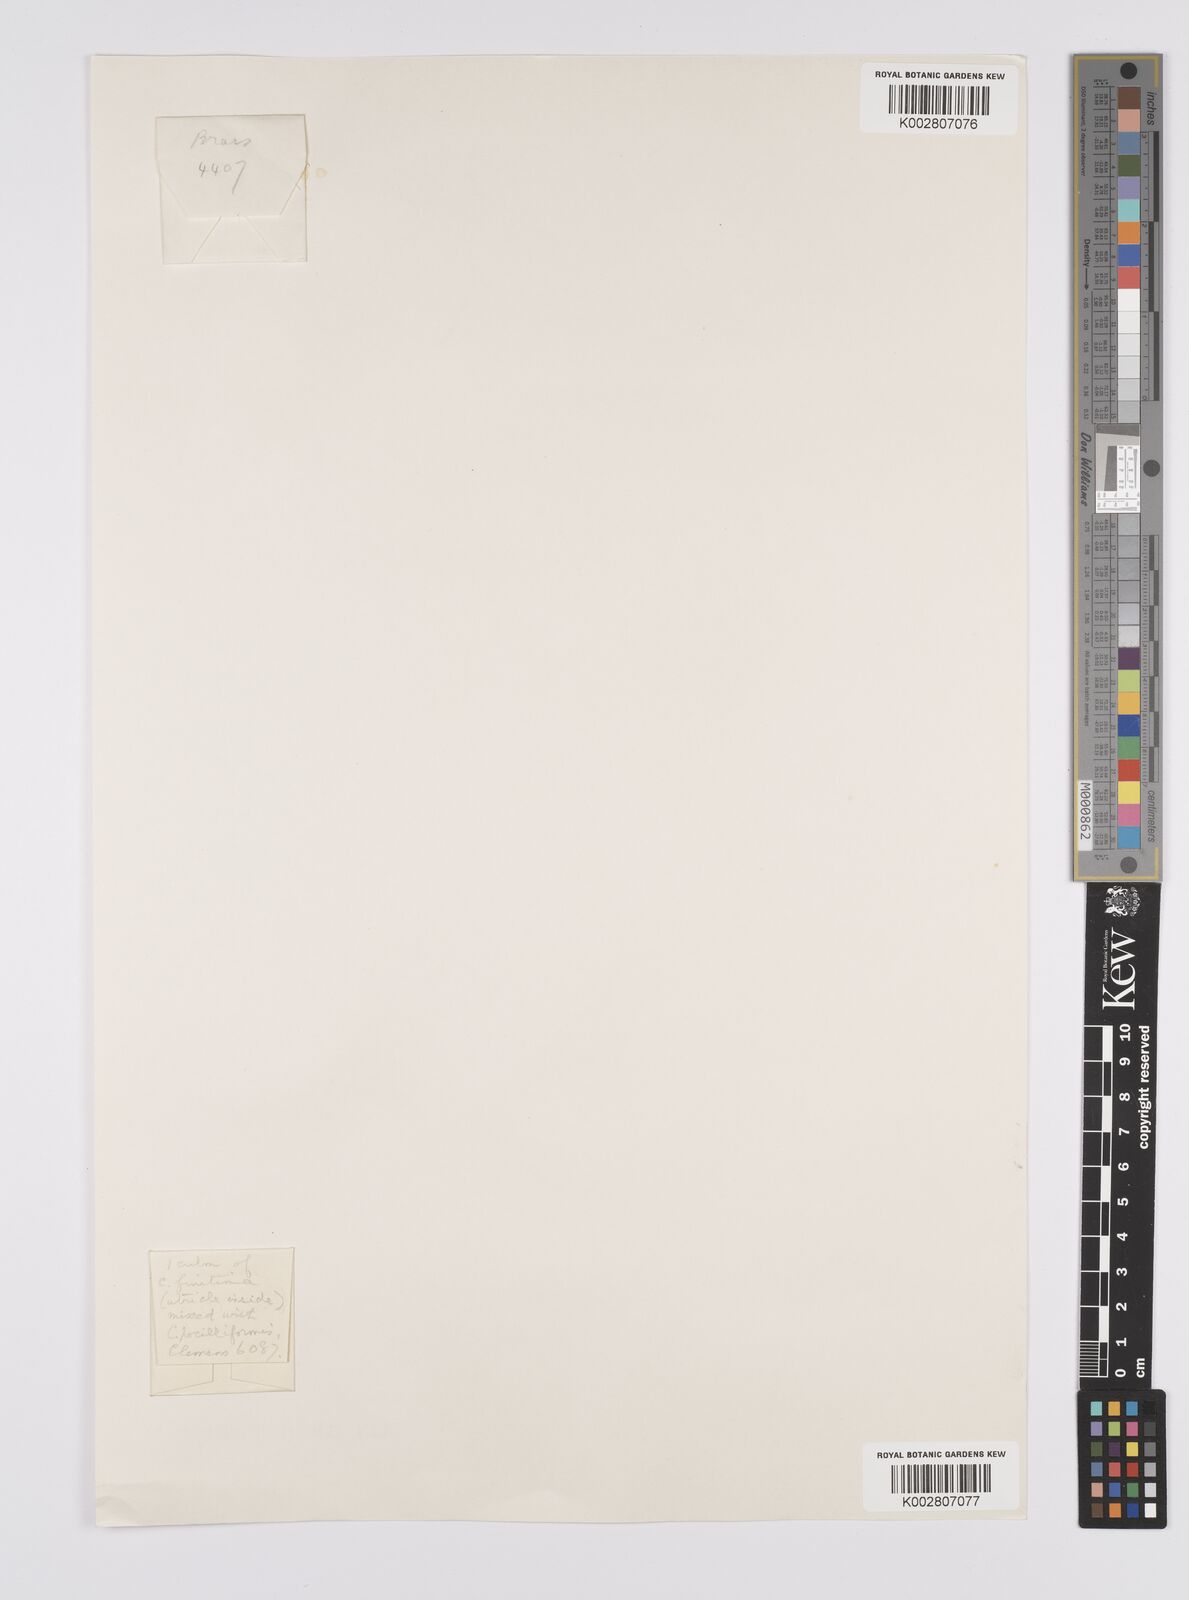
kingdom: Plantae
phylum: Tracheophyta
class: Liliopsida
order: Poales
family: Cyperaceae
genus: Carex
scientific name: Carex finitima
